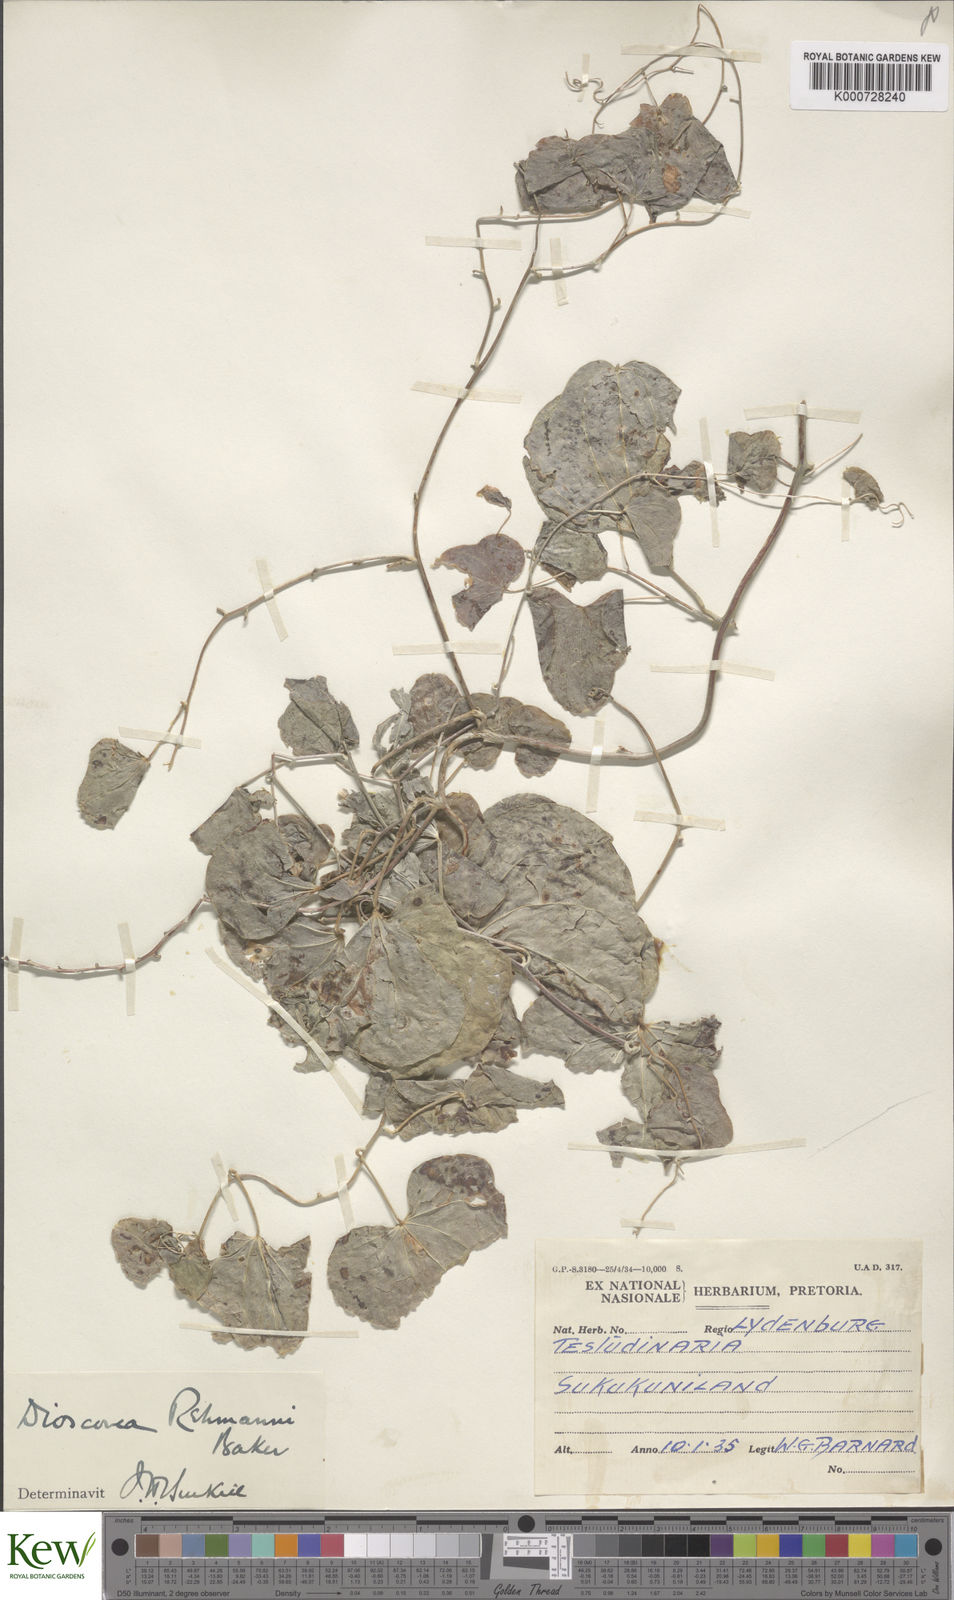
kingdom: Plantae
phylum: Tracheophyta
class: Liliopsida
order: Dioscoreales
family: Dioscoreaceae
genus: Dioscorea
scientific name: Dioscorea sylvatica
